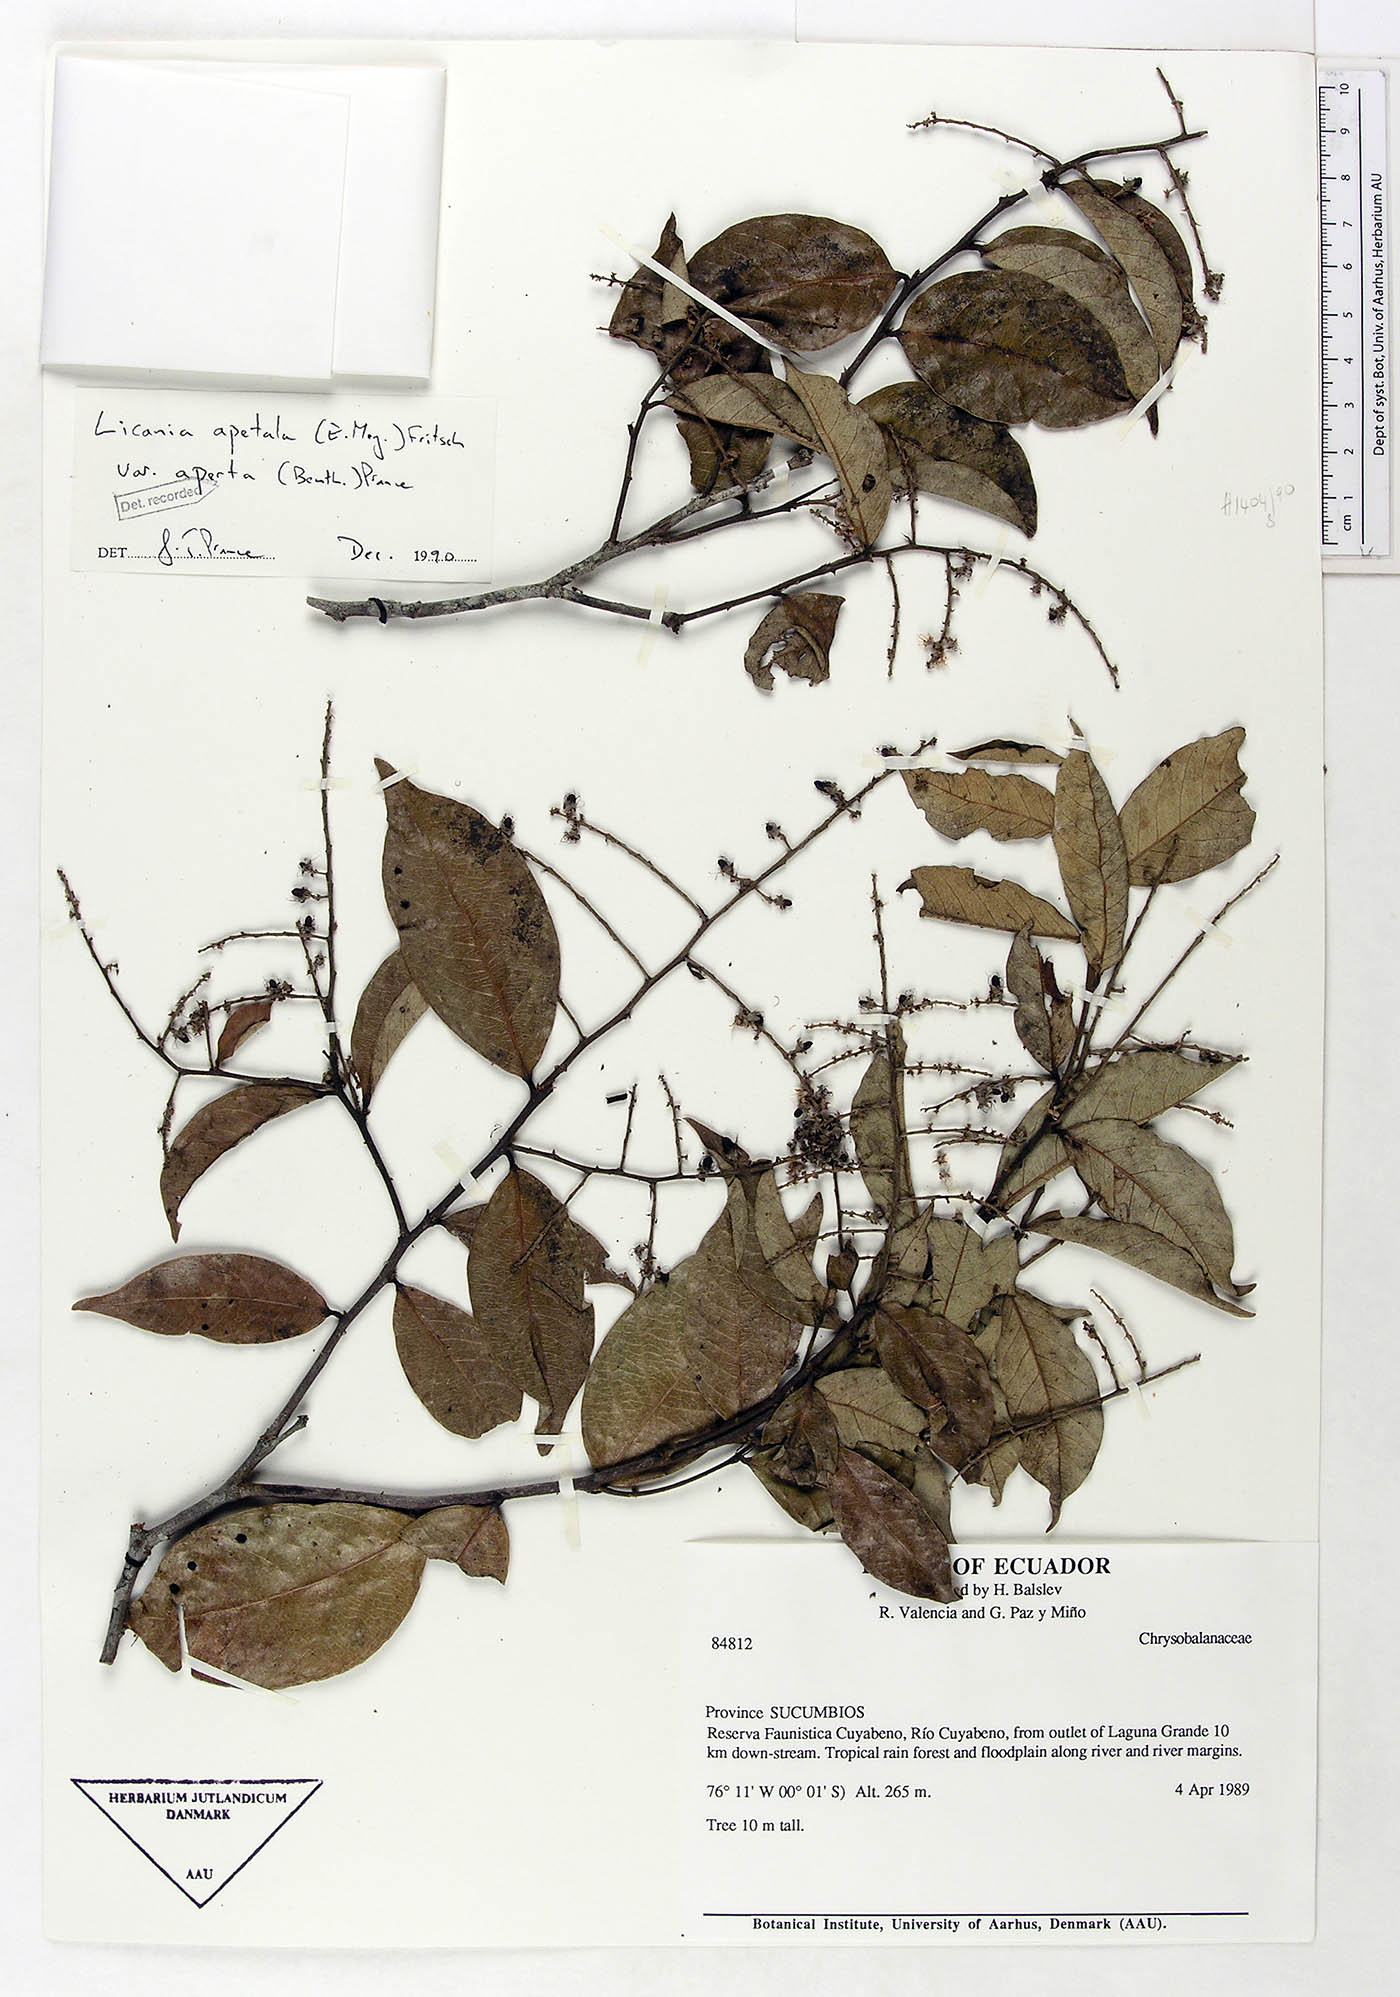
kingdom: Plantae
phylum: Tracheophyta
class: Magnoliopsida
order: Malpighiales
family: Chrysobalanaceae
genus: Leptobalanus
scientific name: Leptobalanus apetalus
